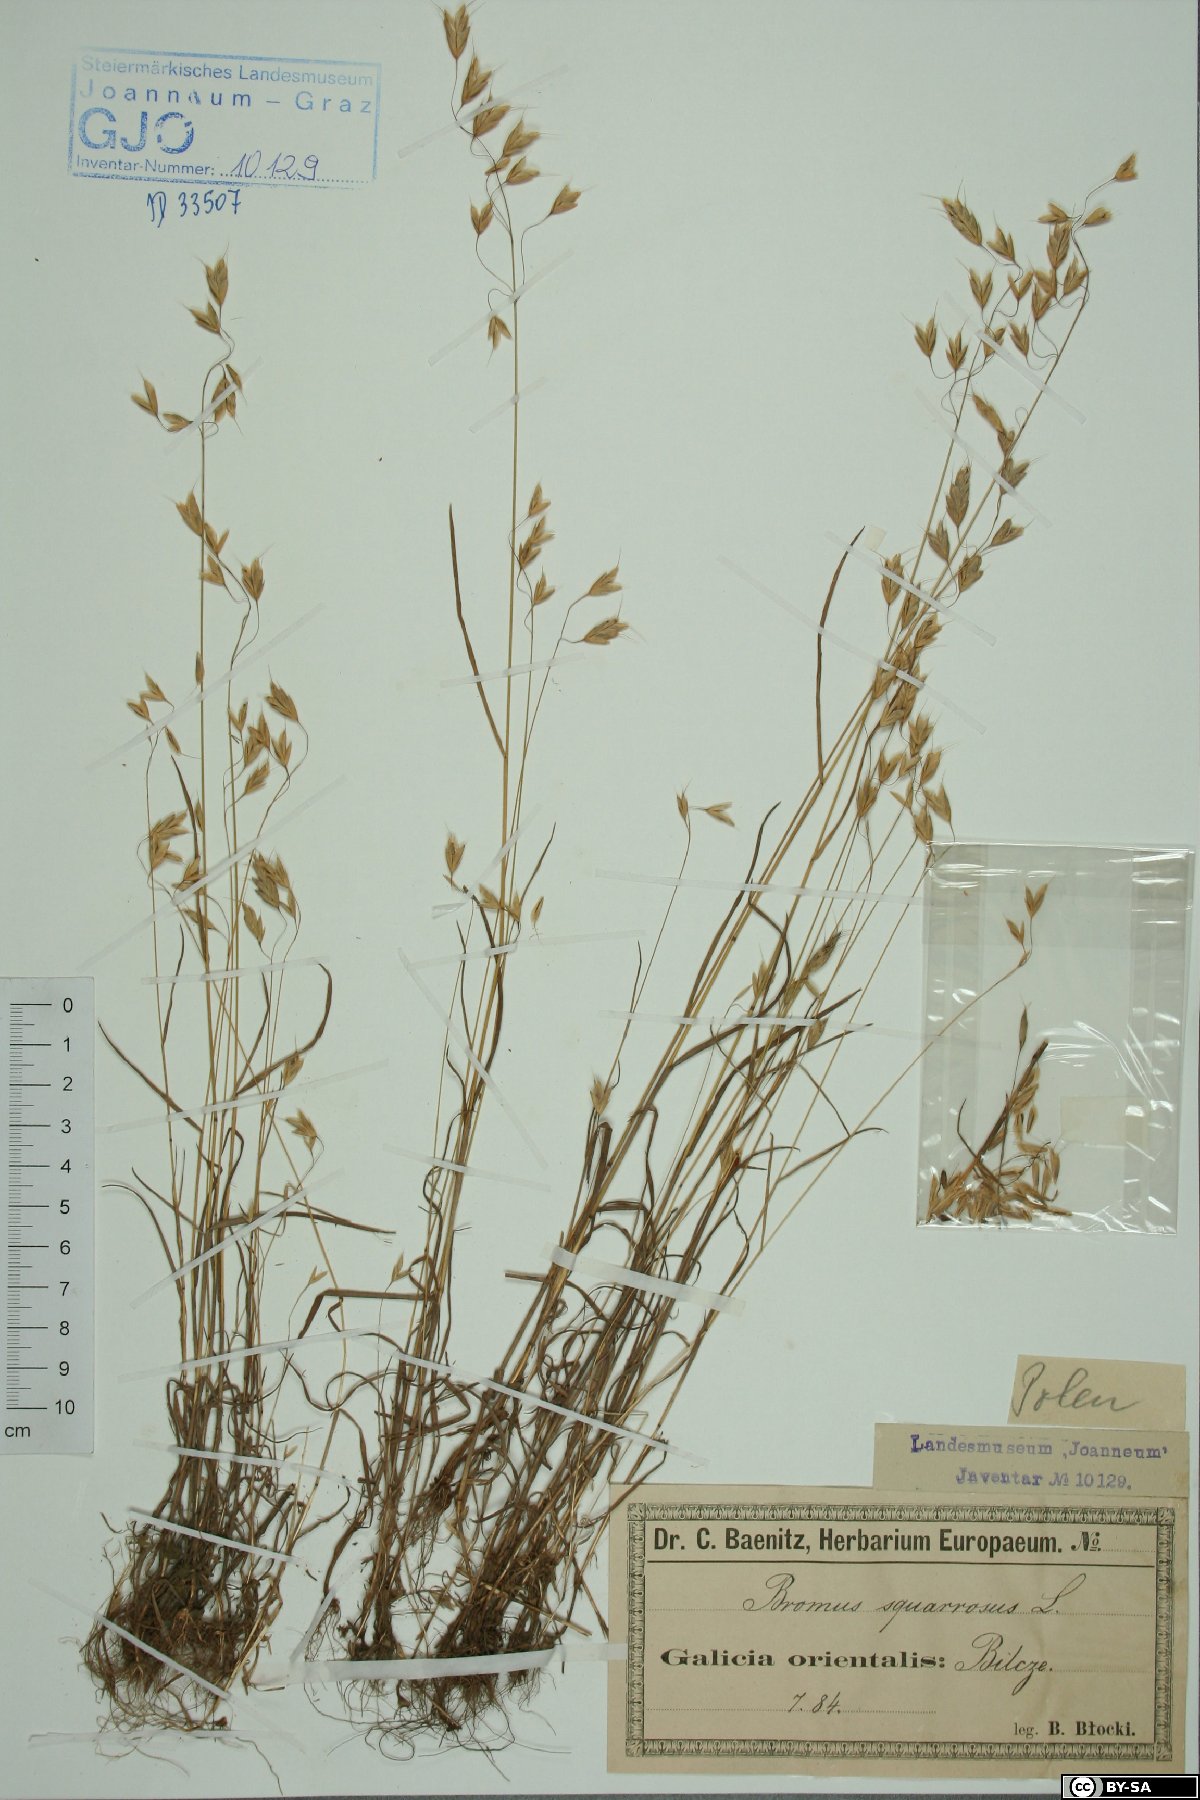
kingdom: Plantae
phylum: Tracheophyta
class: Liliopsida
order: Poales
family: Poaceae
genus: Bromus
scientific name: Bromus squarrosus
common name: Corn brome
